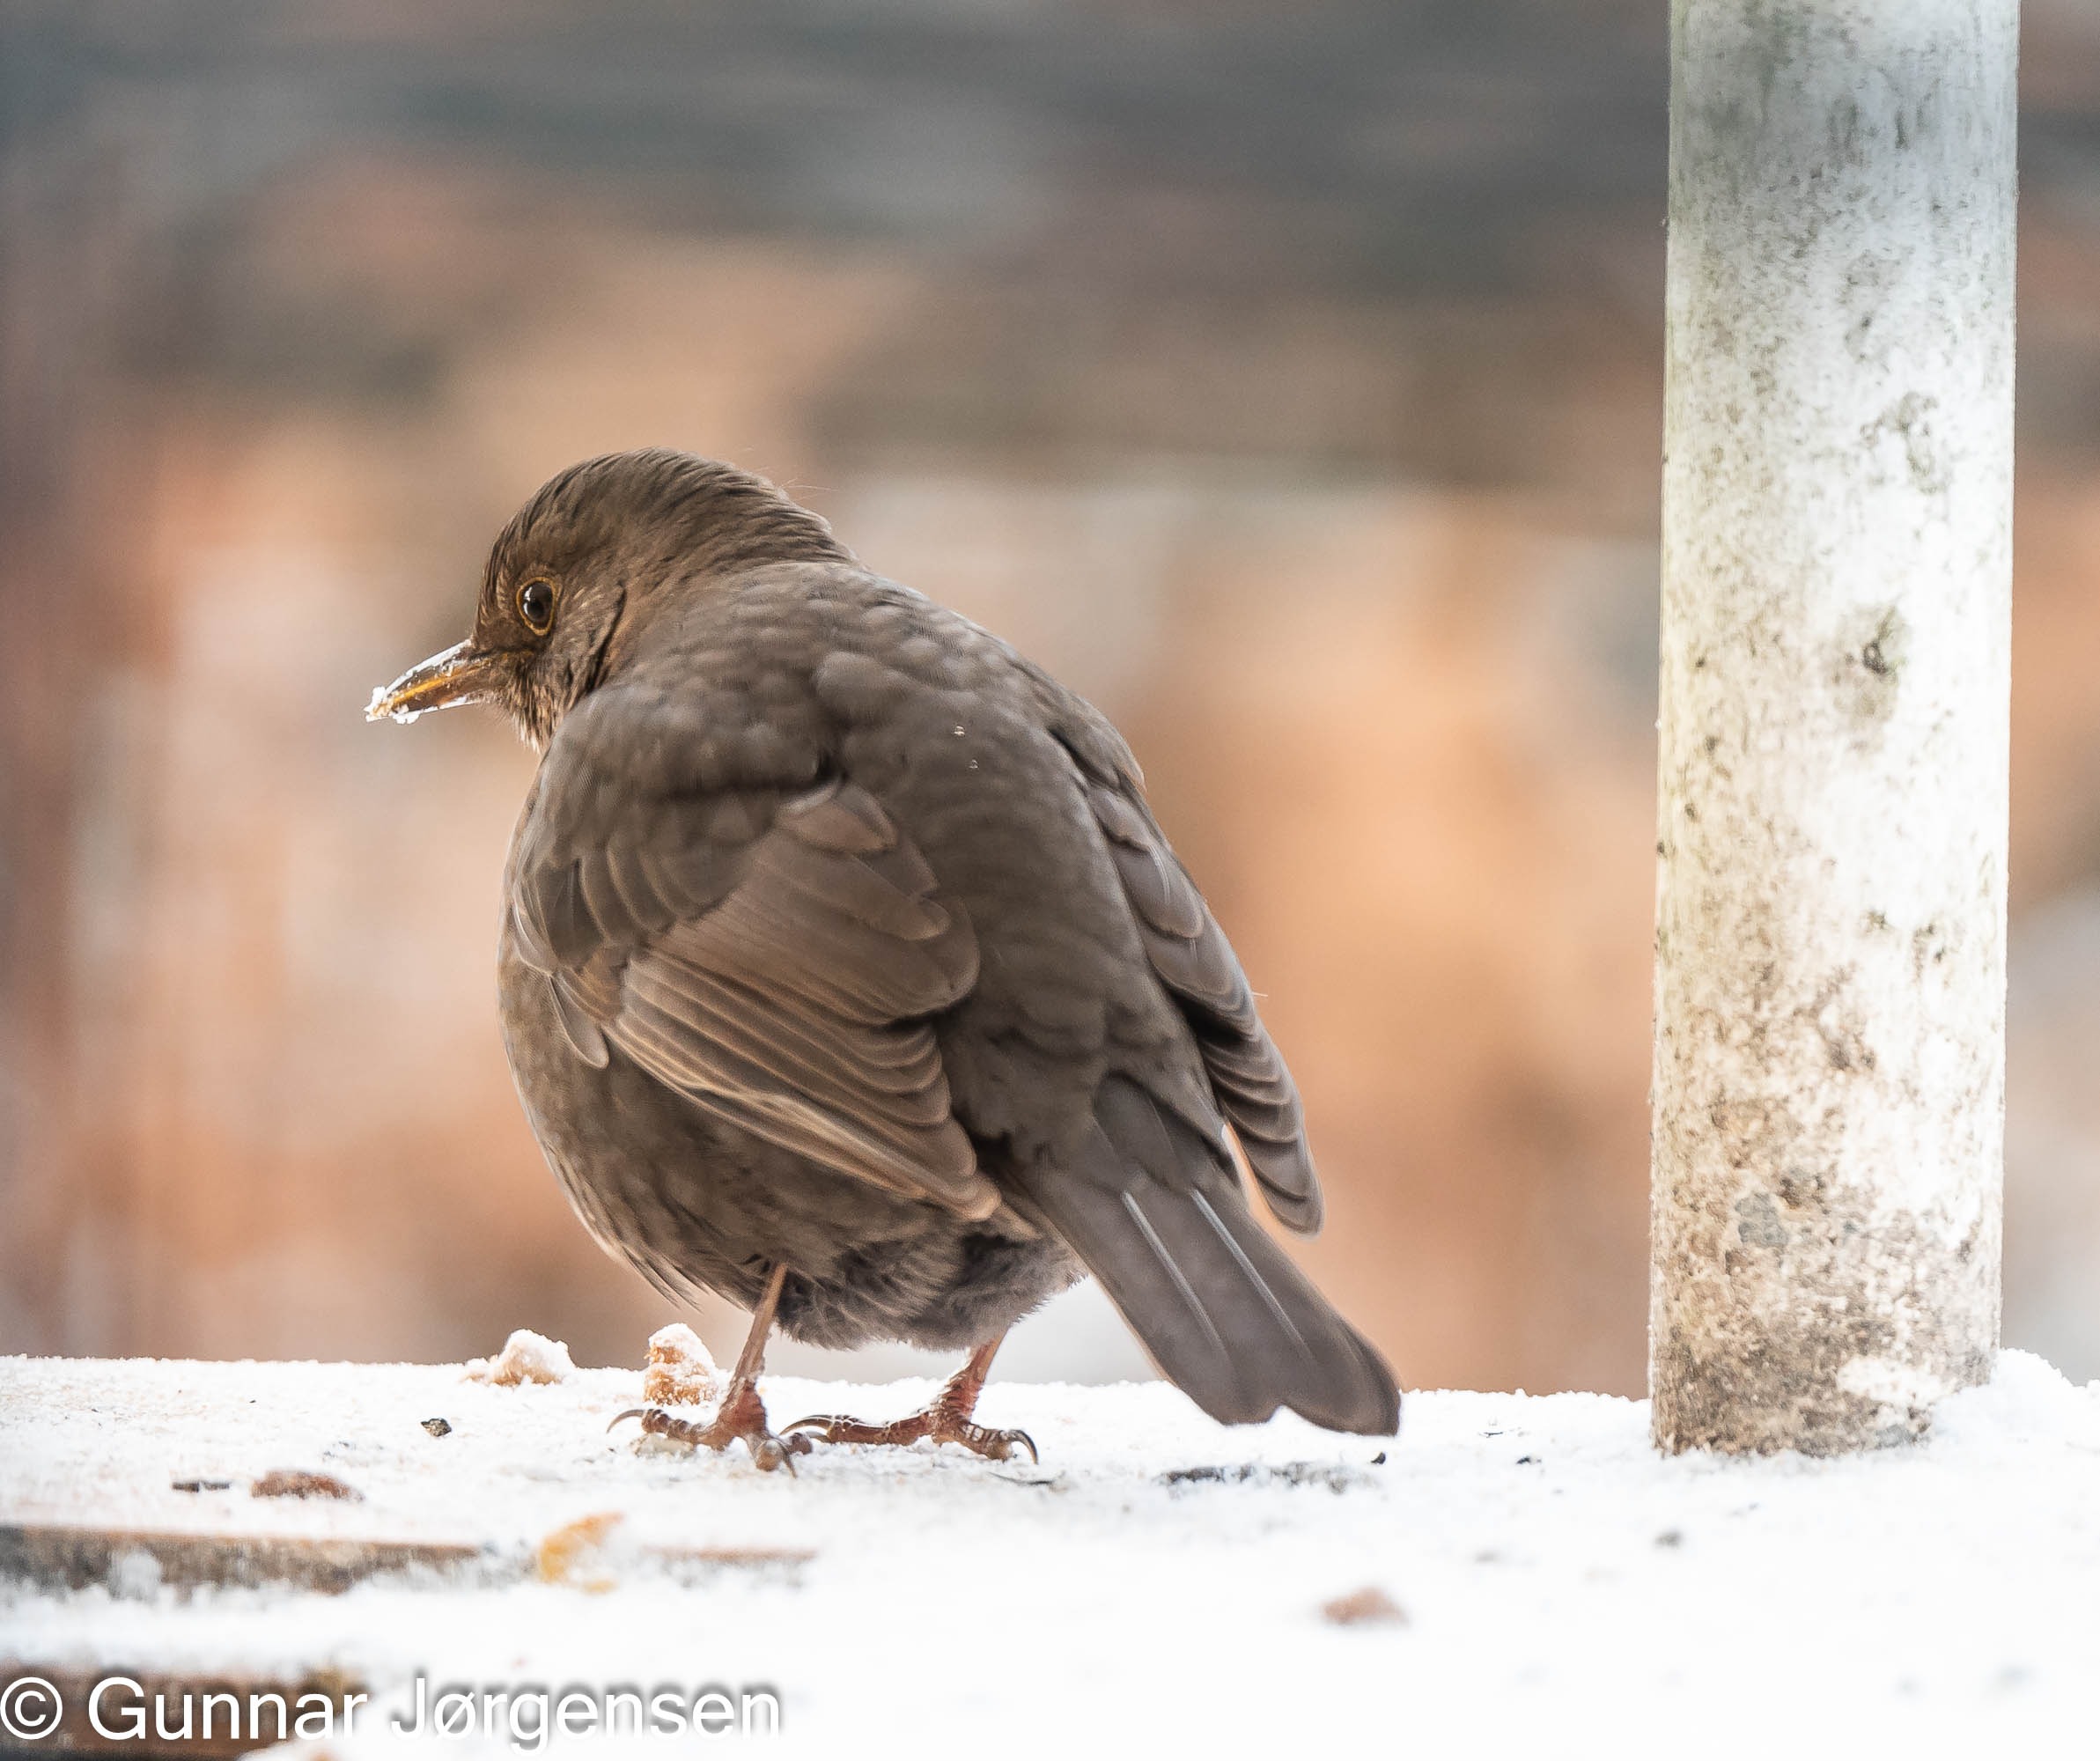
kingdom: Animalia
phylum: Chordata
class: Aves
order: Passeriformes
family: Turdidae
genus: Turdus
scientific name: Turdus merula
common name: Solsort
